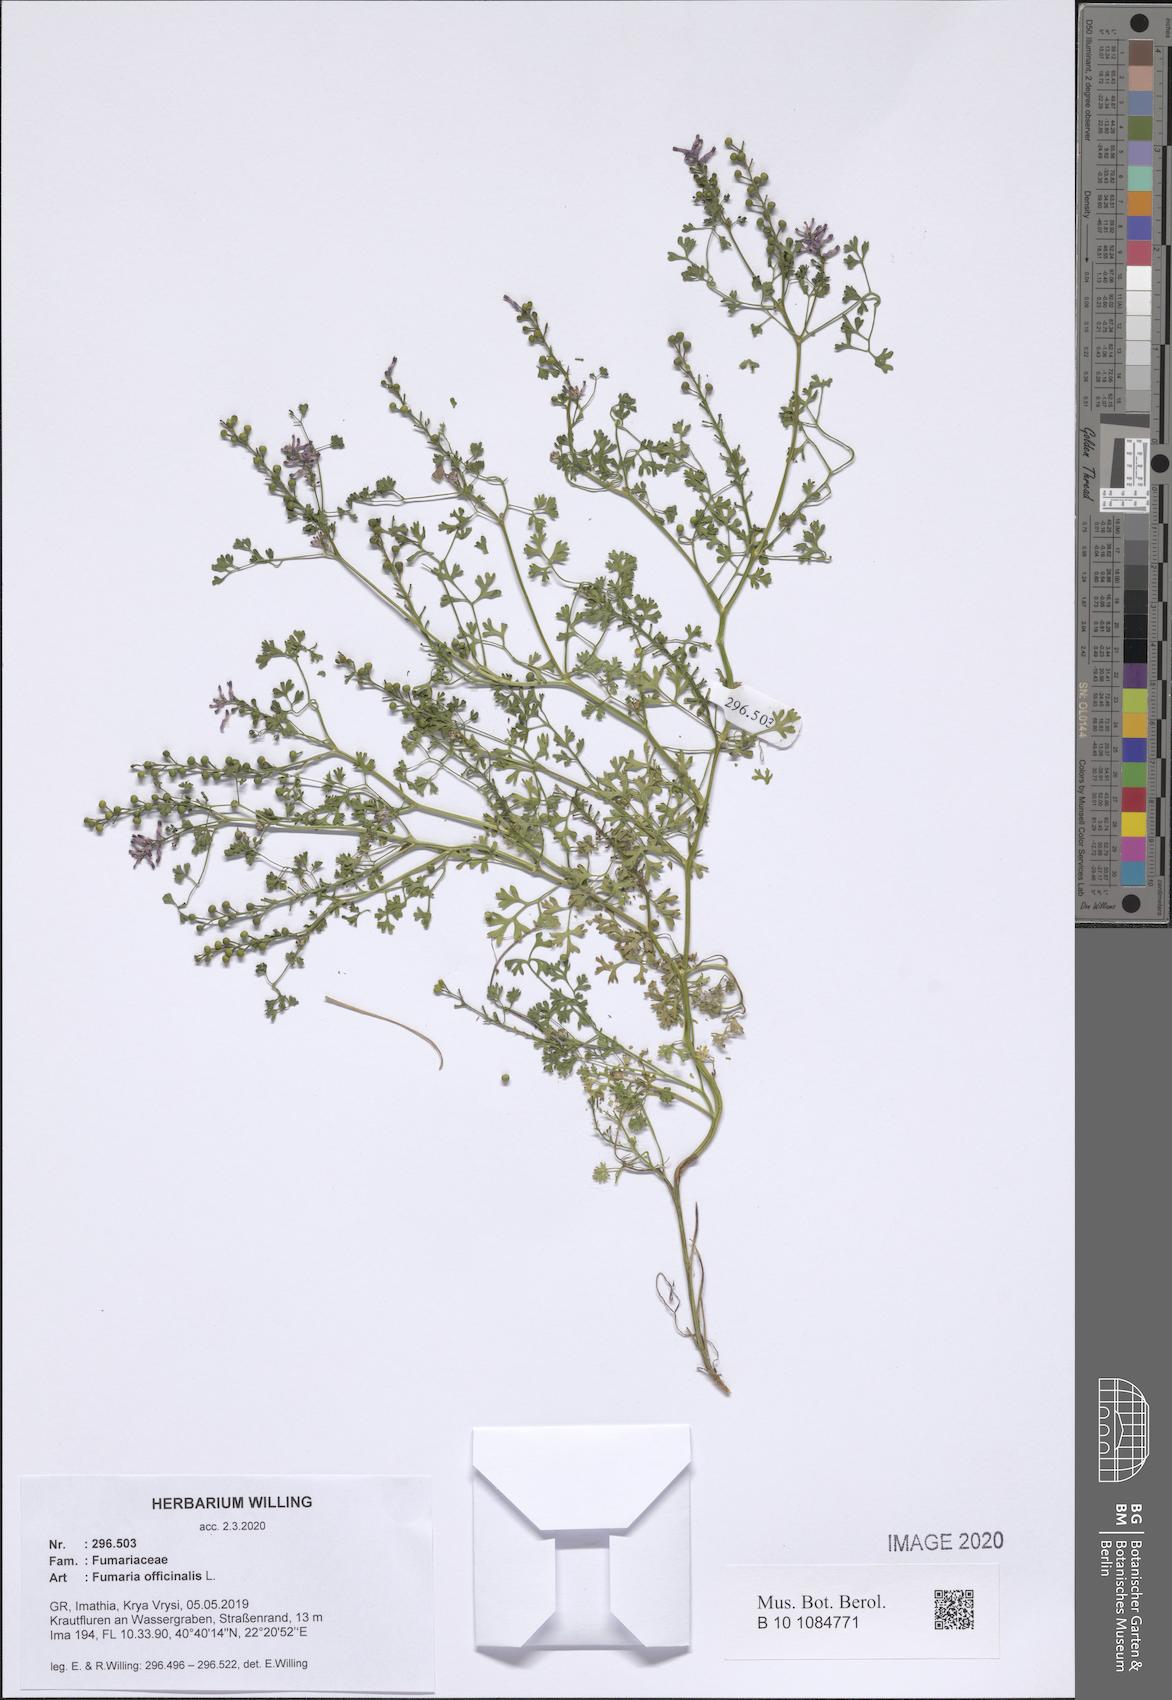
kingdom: Plantae
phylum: Tracheophyta
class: Magnoliopsida
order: Ranunculales
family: Papaveraceae
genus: Fumaria
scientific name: Fumaria officinalis
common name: Common fumitory
